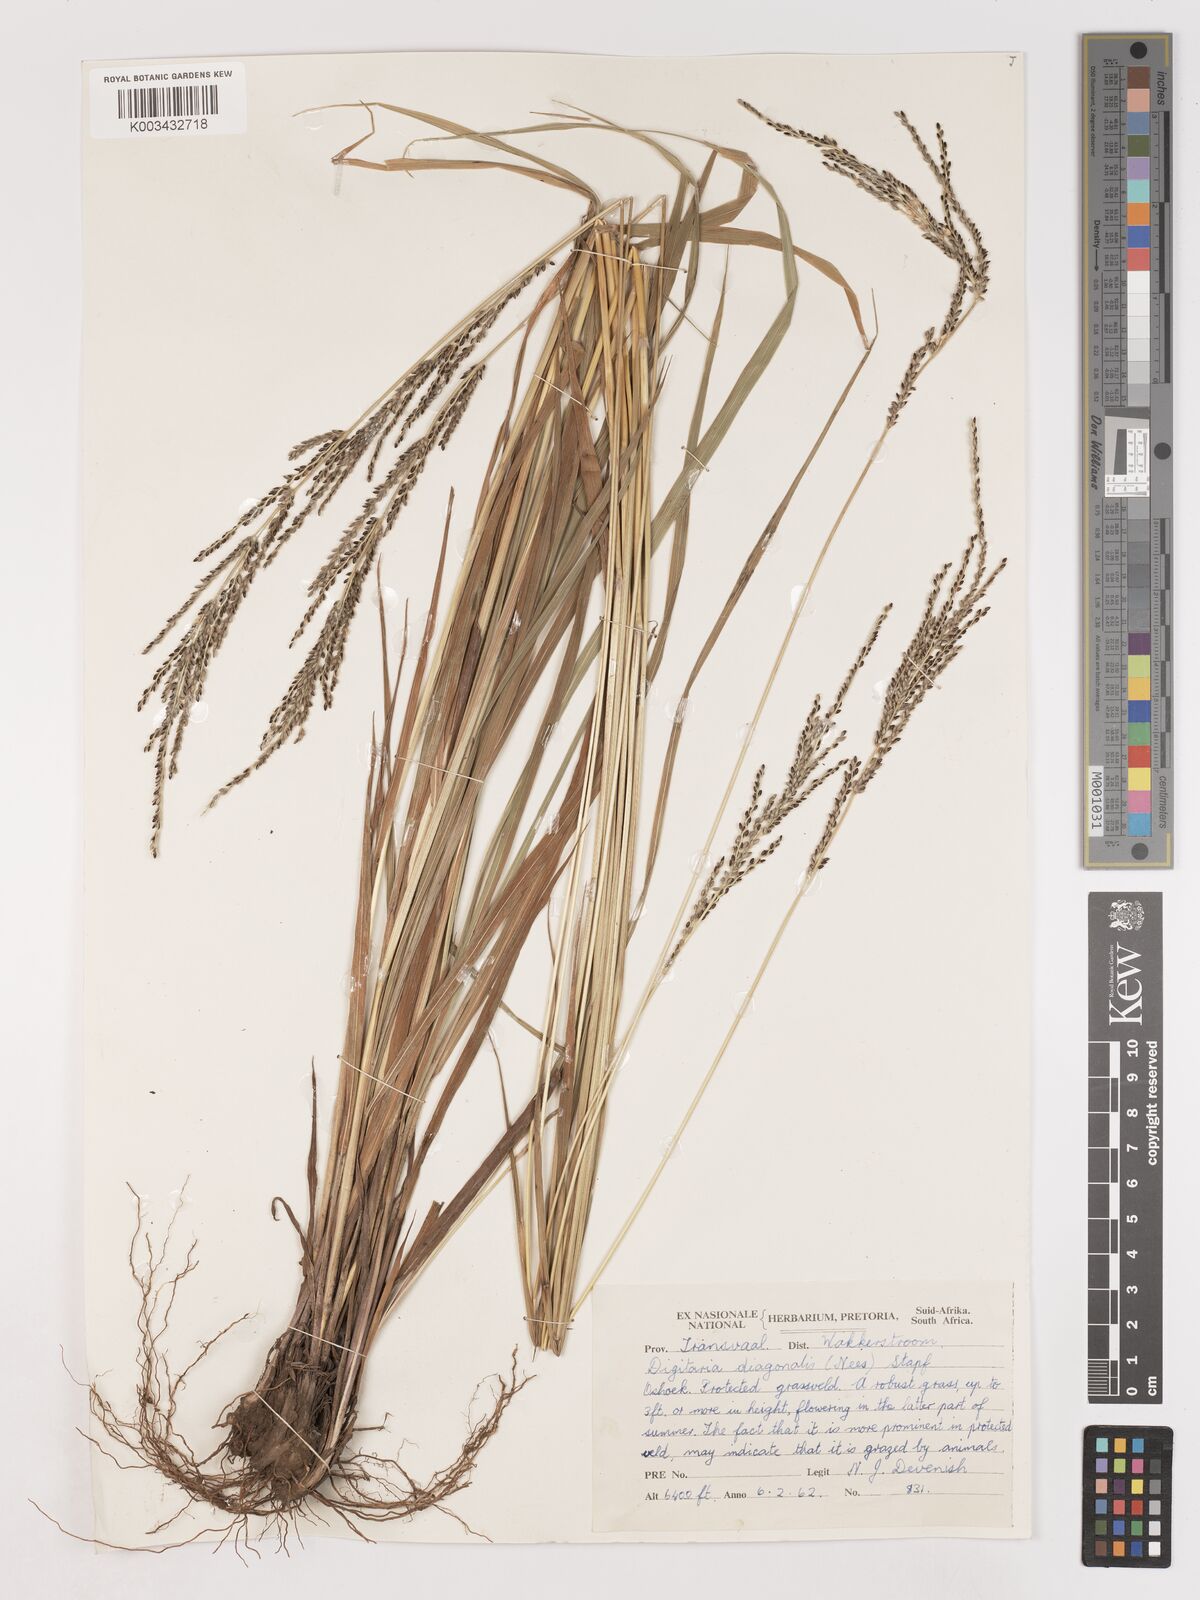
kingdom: Plantae
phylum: Tracheophyta
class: Liliopsida
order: Poales
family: Poaceae
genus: Digitaria
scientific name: Digitaria diagonalis
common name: Brown-seed finger grass
